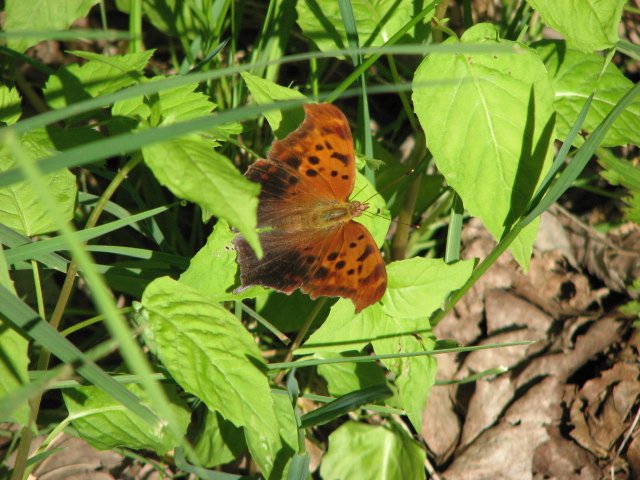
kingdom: Animalia
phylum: Arthropoda
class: Insecta
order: Lepidoptera
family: Nymphalidae
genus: Polygonia
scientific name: Polygonia interrogationis
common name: Question Mark
